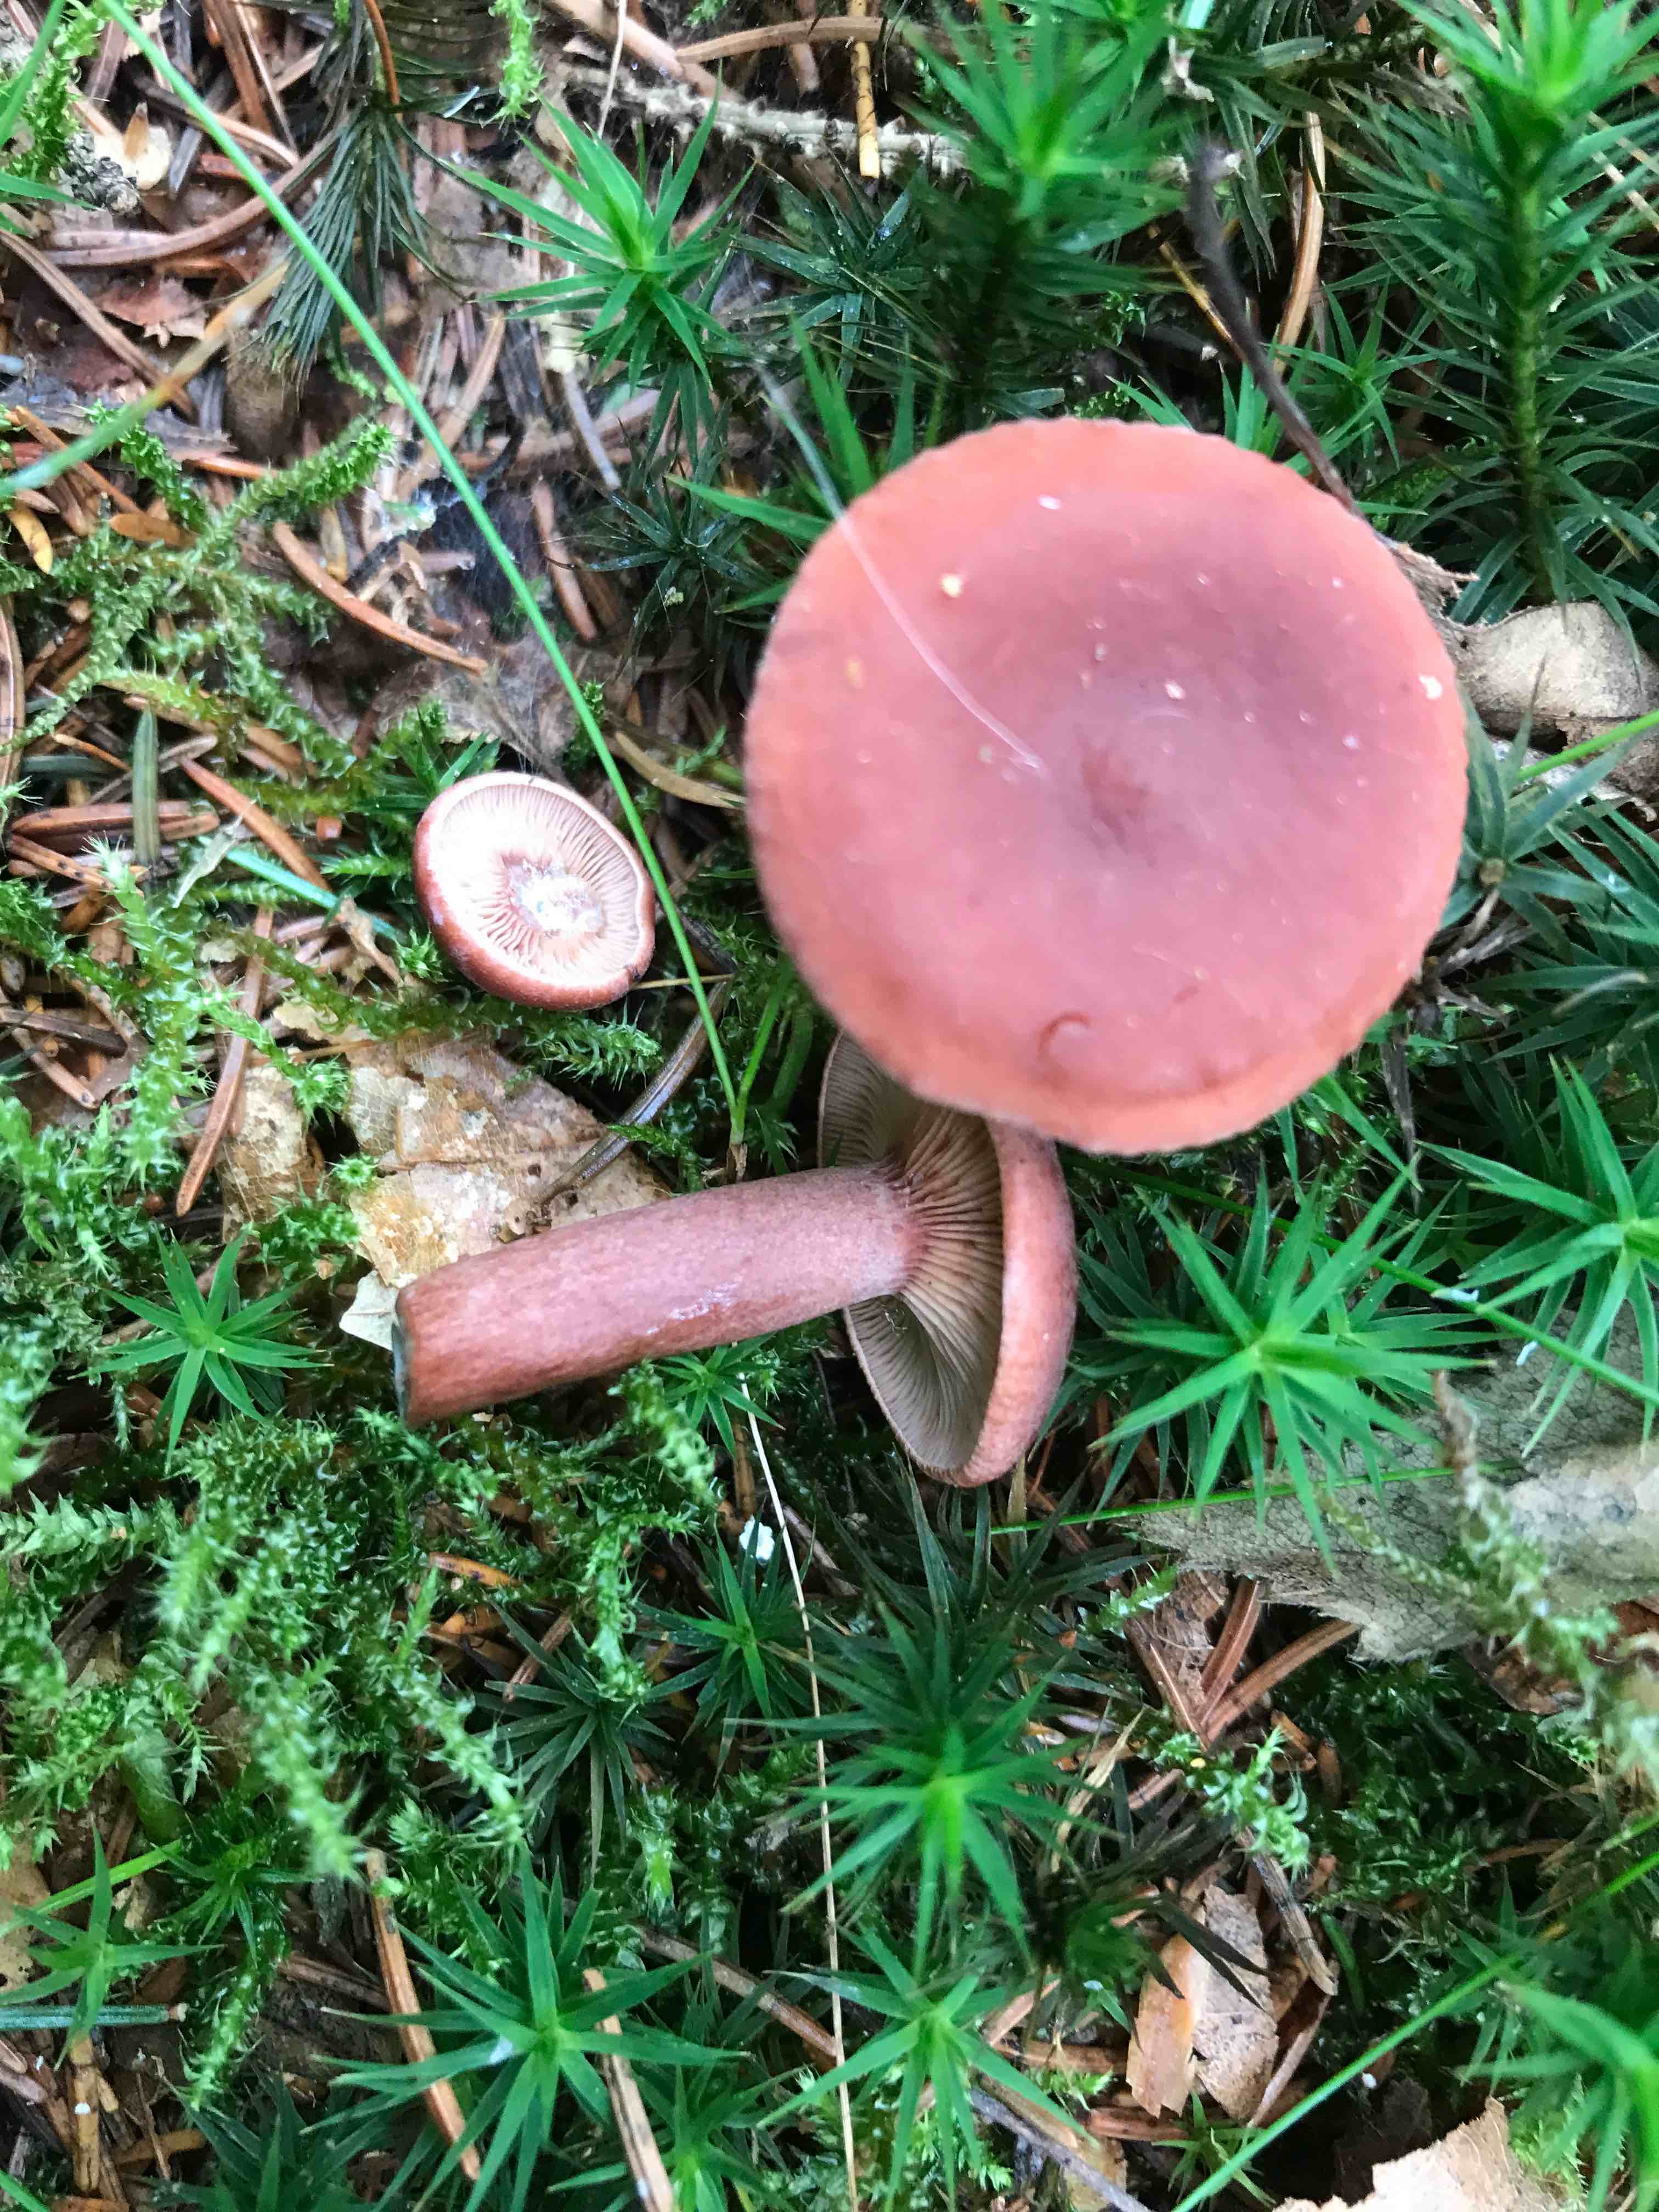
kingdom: Fungi
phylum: Basidiomycota
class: Agaricomycetes
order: Russulales
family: Russulaceae
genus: Lactarius
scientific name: Lactarius camphoratus
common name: kamfer-mælkehat
